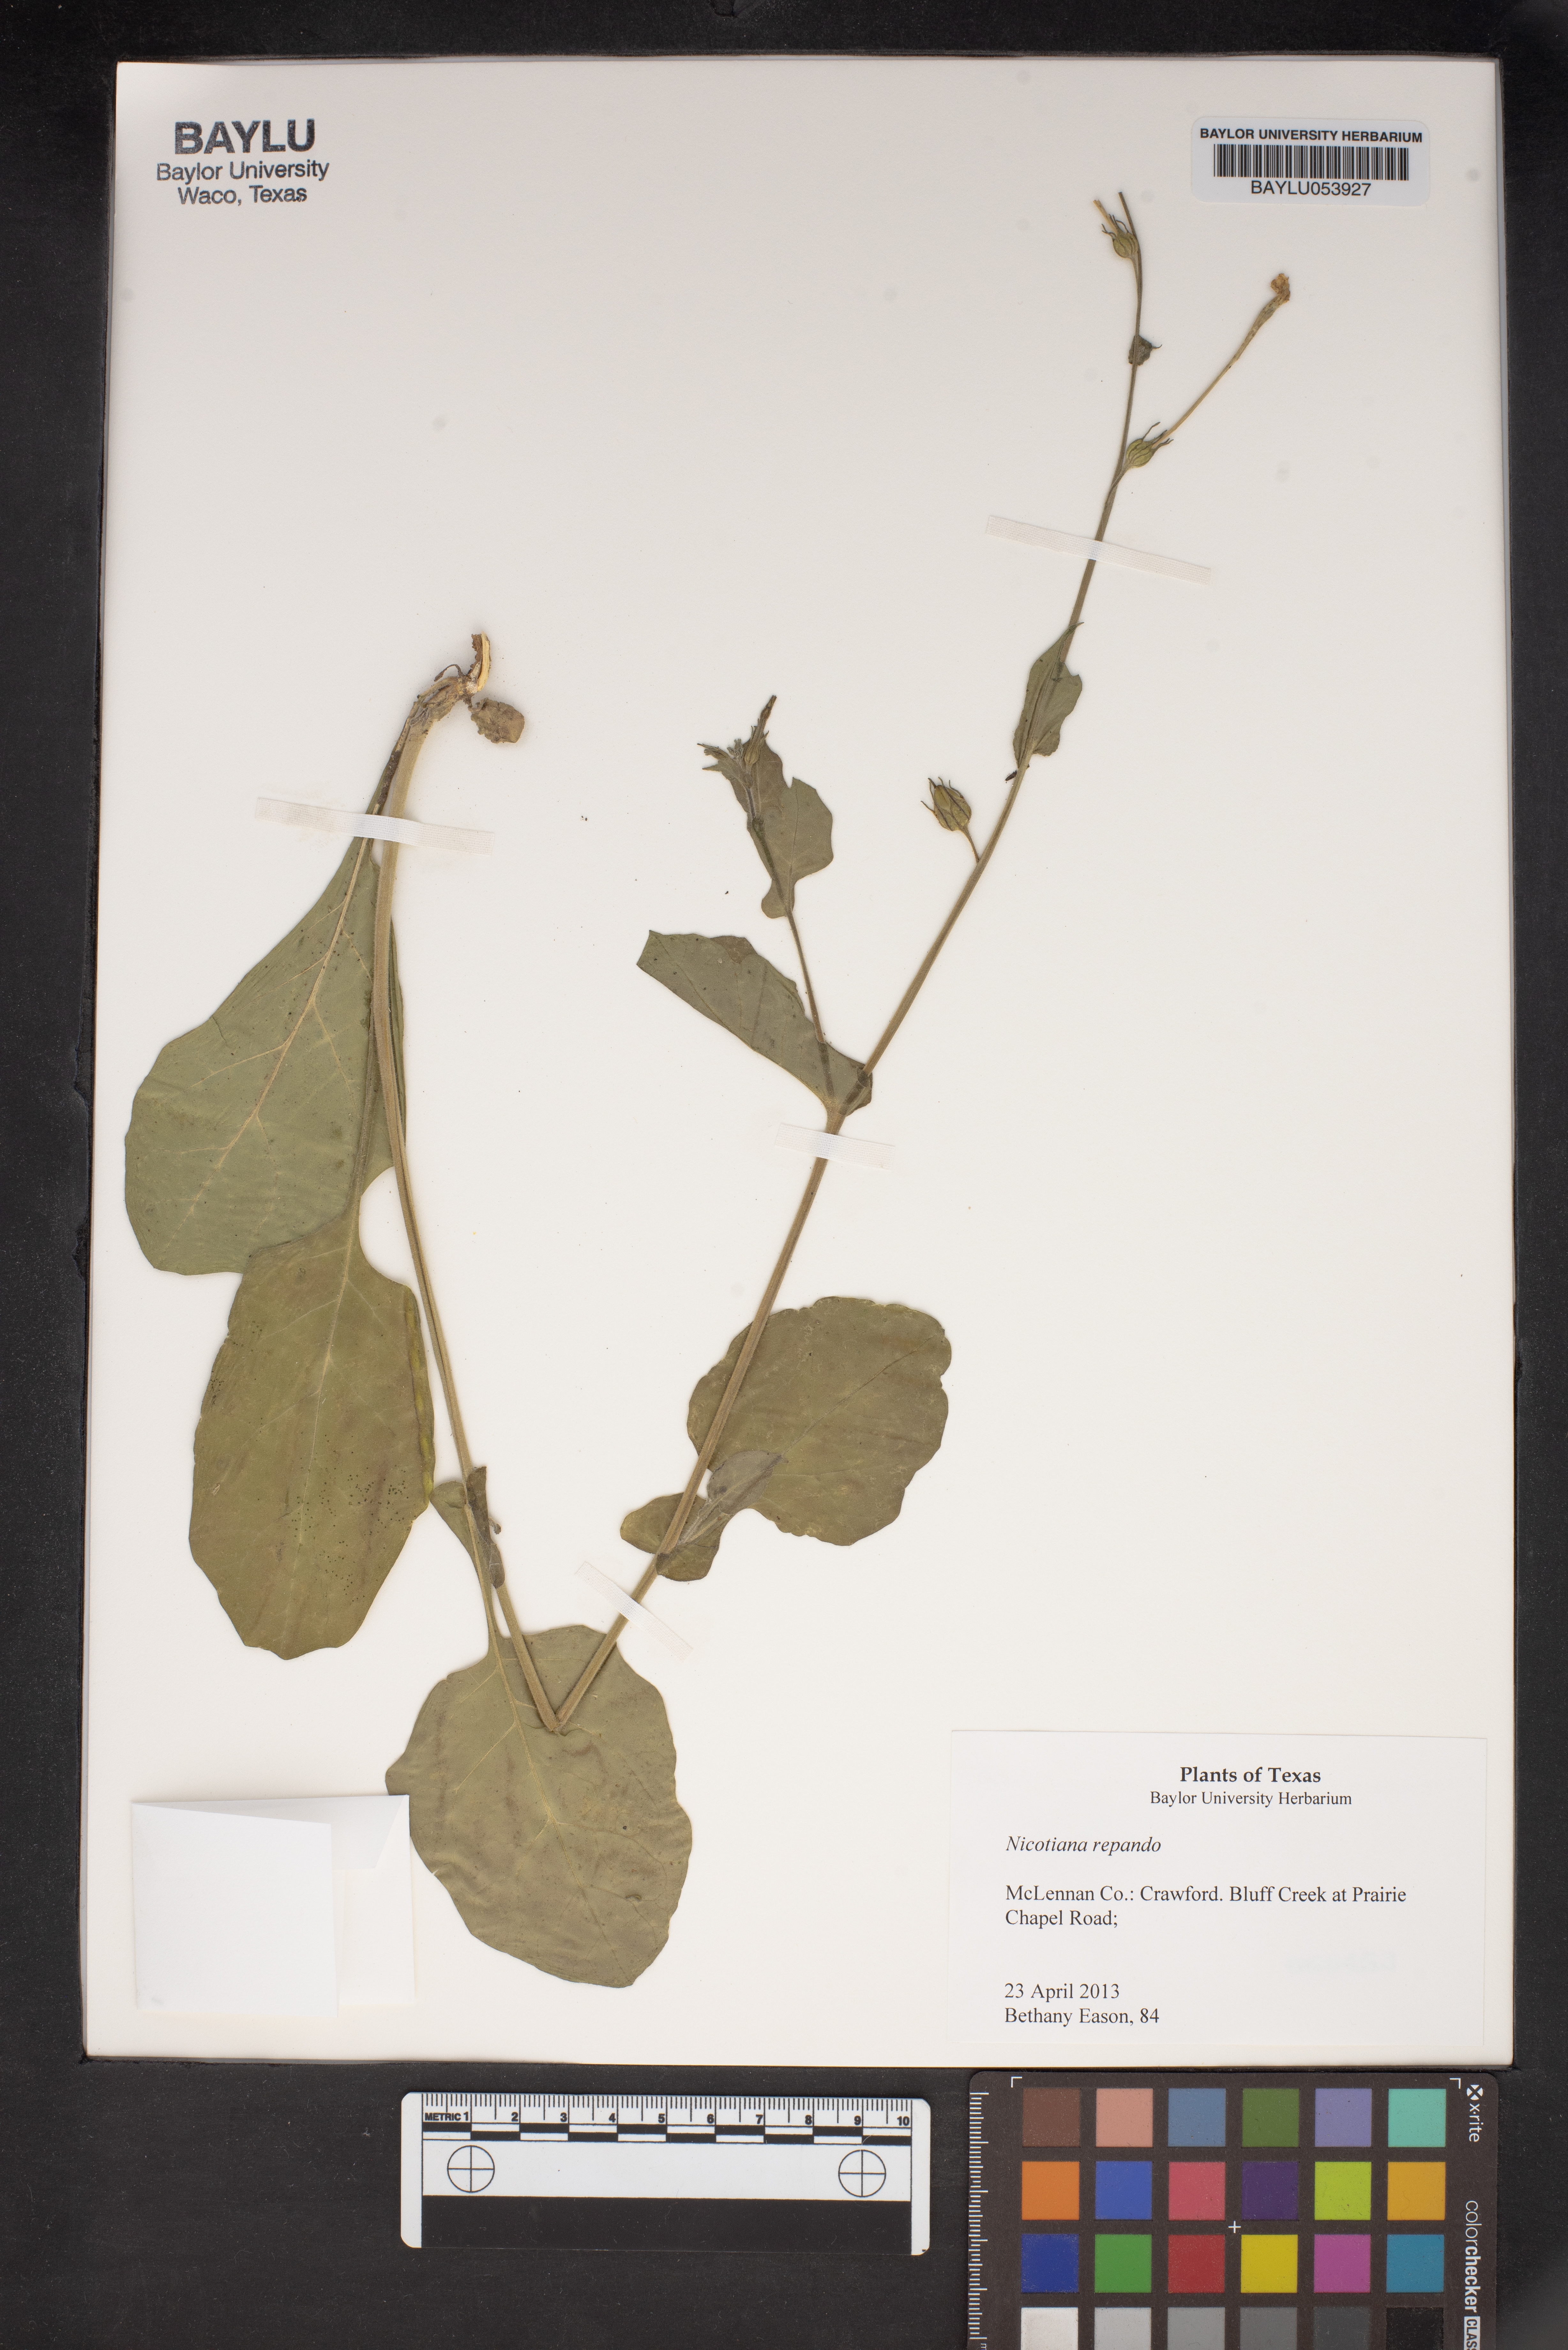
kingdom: Plantae
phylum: Tracheophyta
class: Magnoliopsida
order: Solanales
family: Solanaceae
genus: Nicotiana
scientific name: Nicotiana repanda
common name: Fiddle-leaf tobacco
